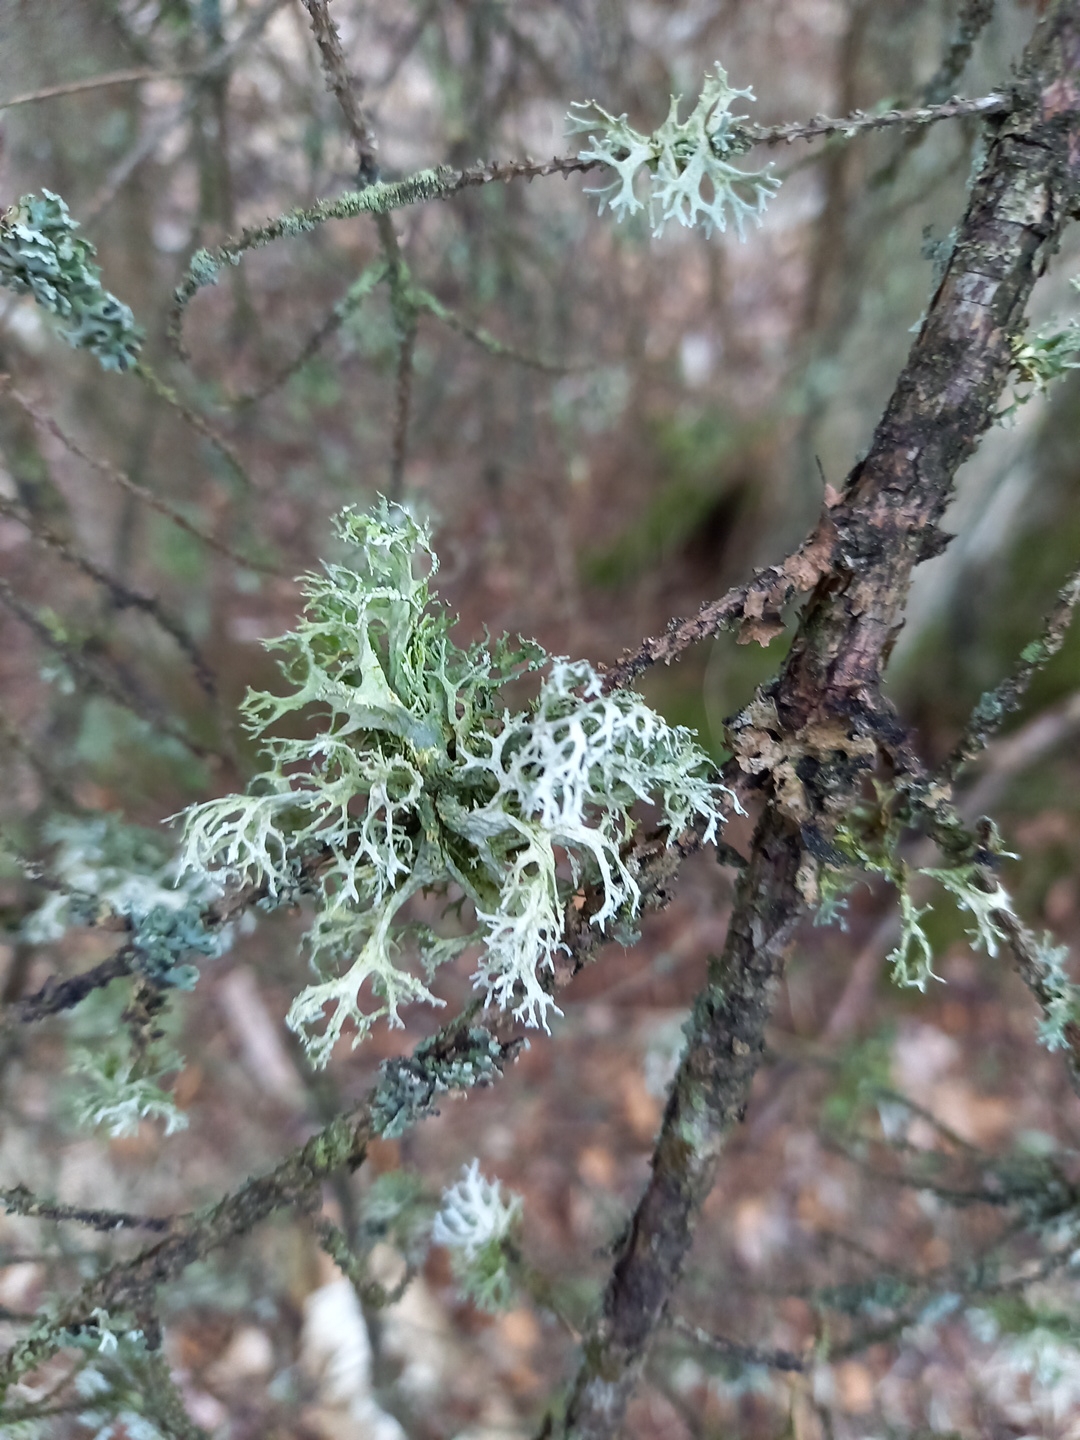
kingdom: Fungi
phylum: Ascomycota
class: Lecanoromycetes
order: Lecanorales
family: Parmeliaceae
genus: Evernia
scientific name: Evernia prunastri
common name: almindelig slåenlav
